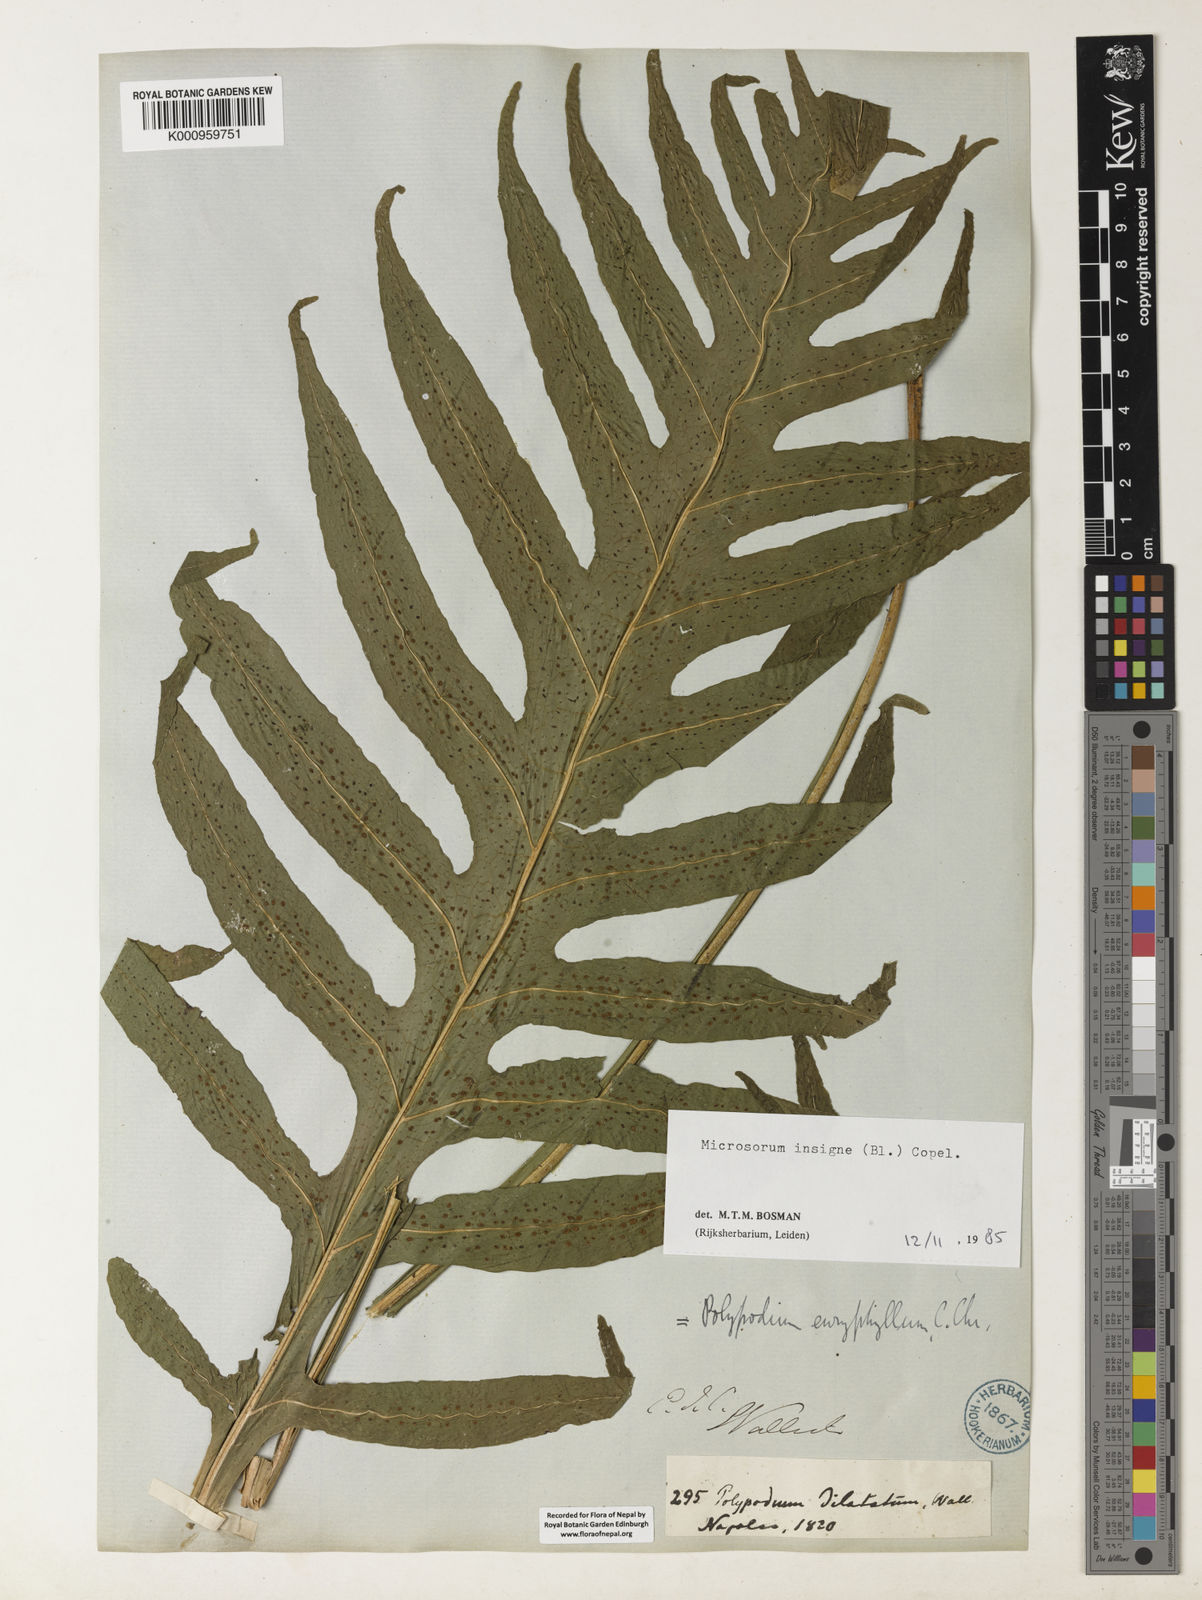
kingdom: Plantae
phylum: Tracheophyta
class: Polypodiopsida
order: Polypodiales
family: Polypodiaceae
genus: Leptochilus
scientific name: Leptochilus insignis
